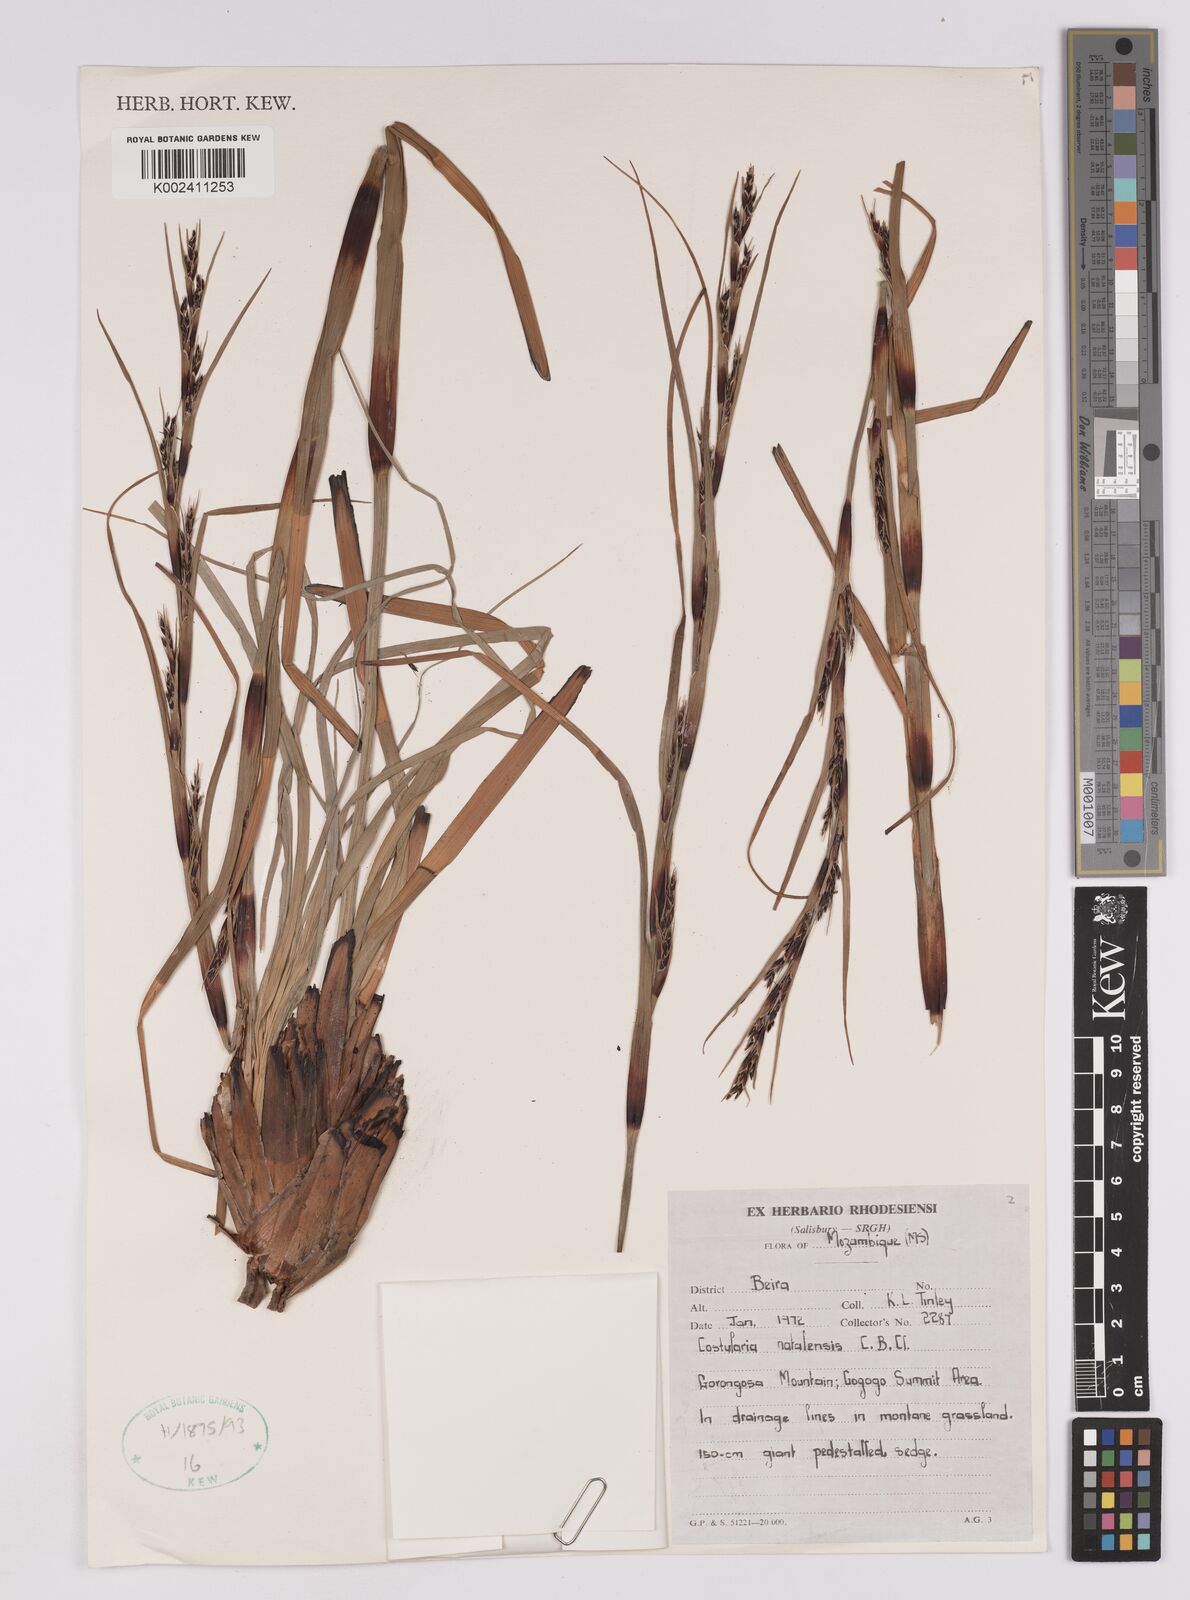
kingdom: Plantae
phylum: Tracheophyta
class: Liliopsida
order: Poales
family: Cyperaceae
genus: Costularia
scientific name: Costularia natalensis
